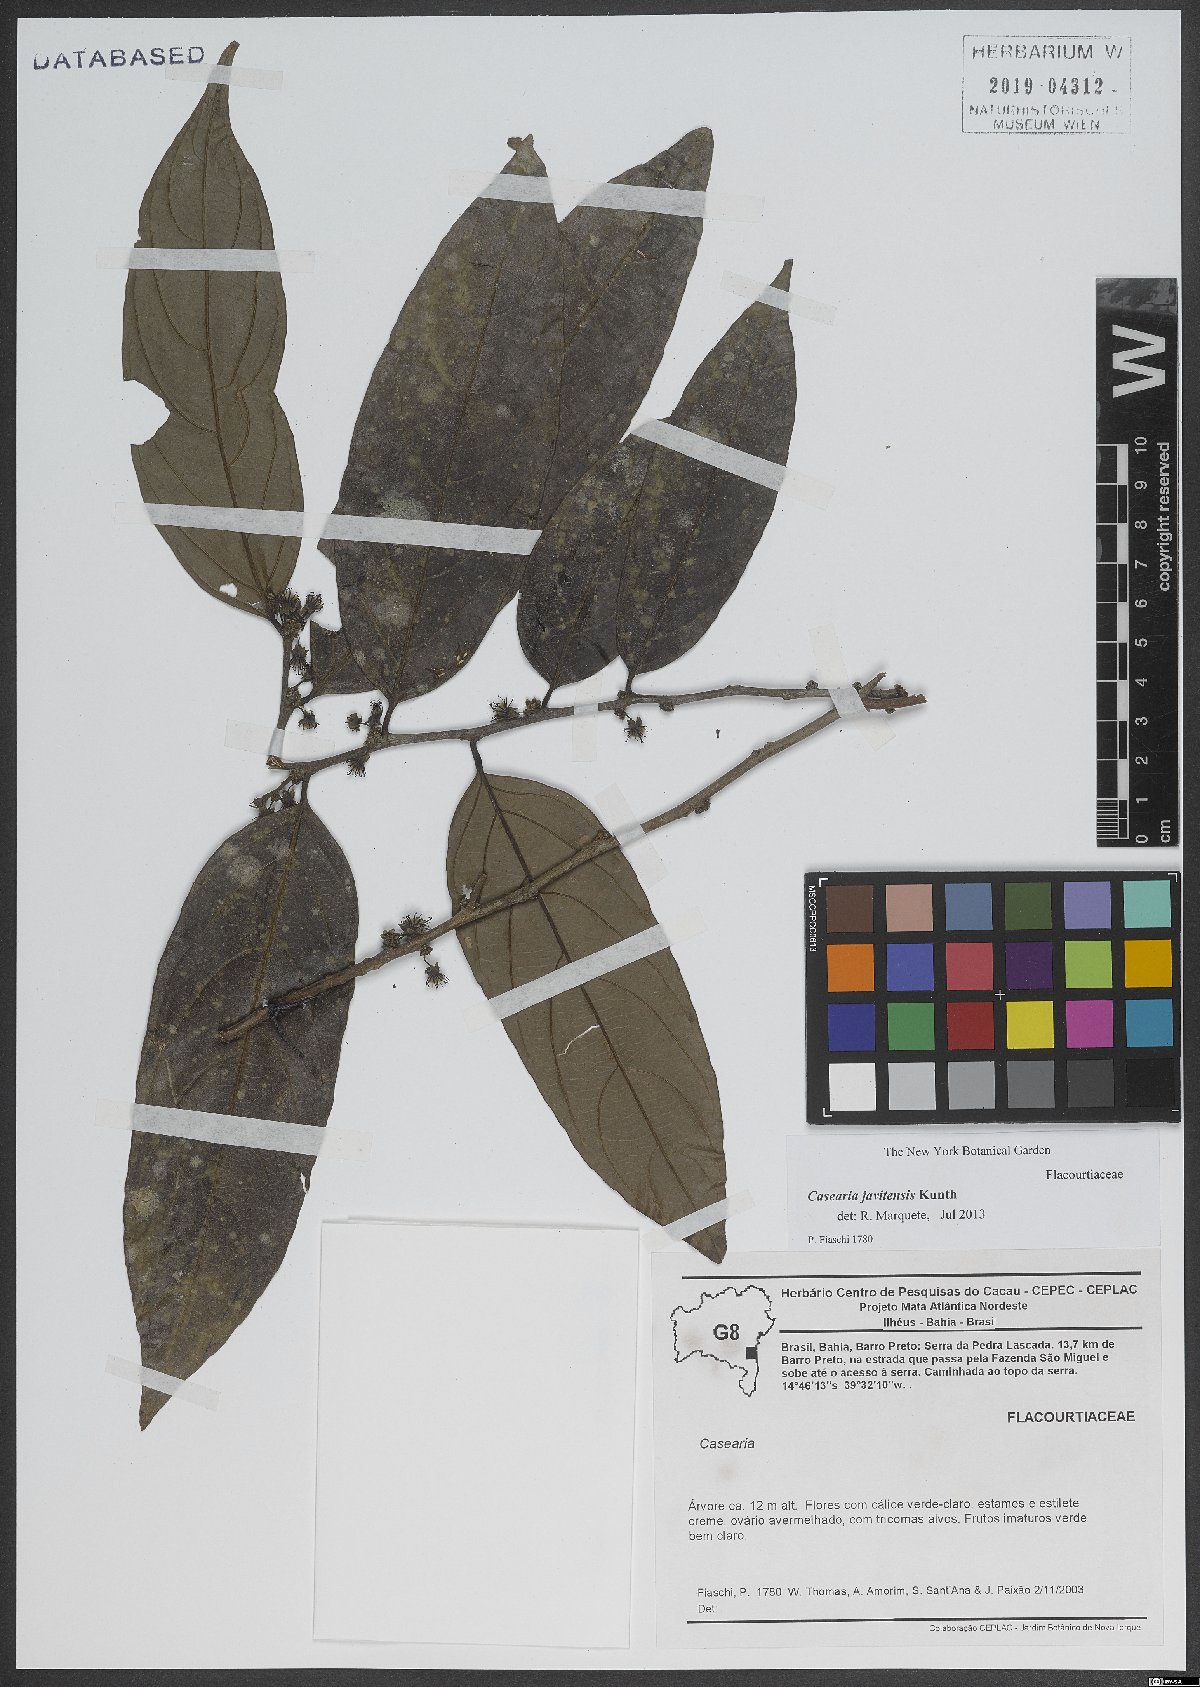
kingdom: Plantae
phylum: Tracheophyta
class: Magnoliopsida
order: Malpighiales
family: Salicaceae
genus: Piparea
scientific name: Piparea multiflora
